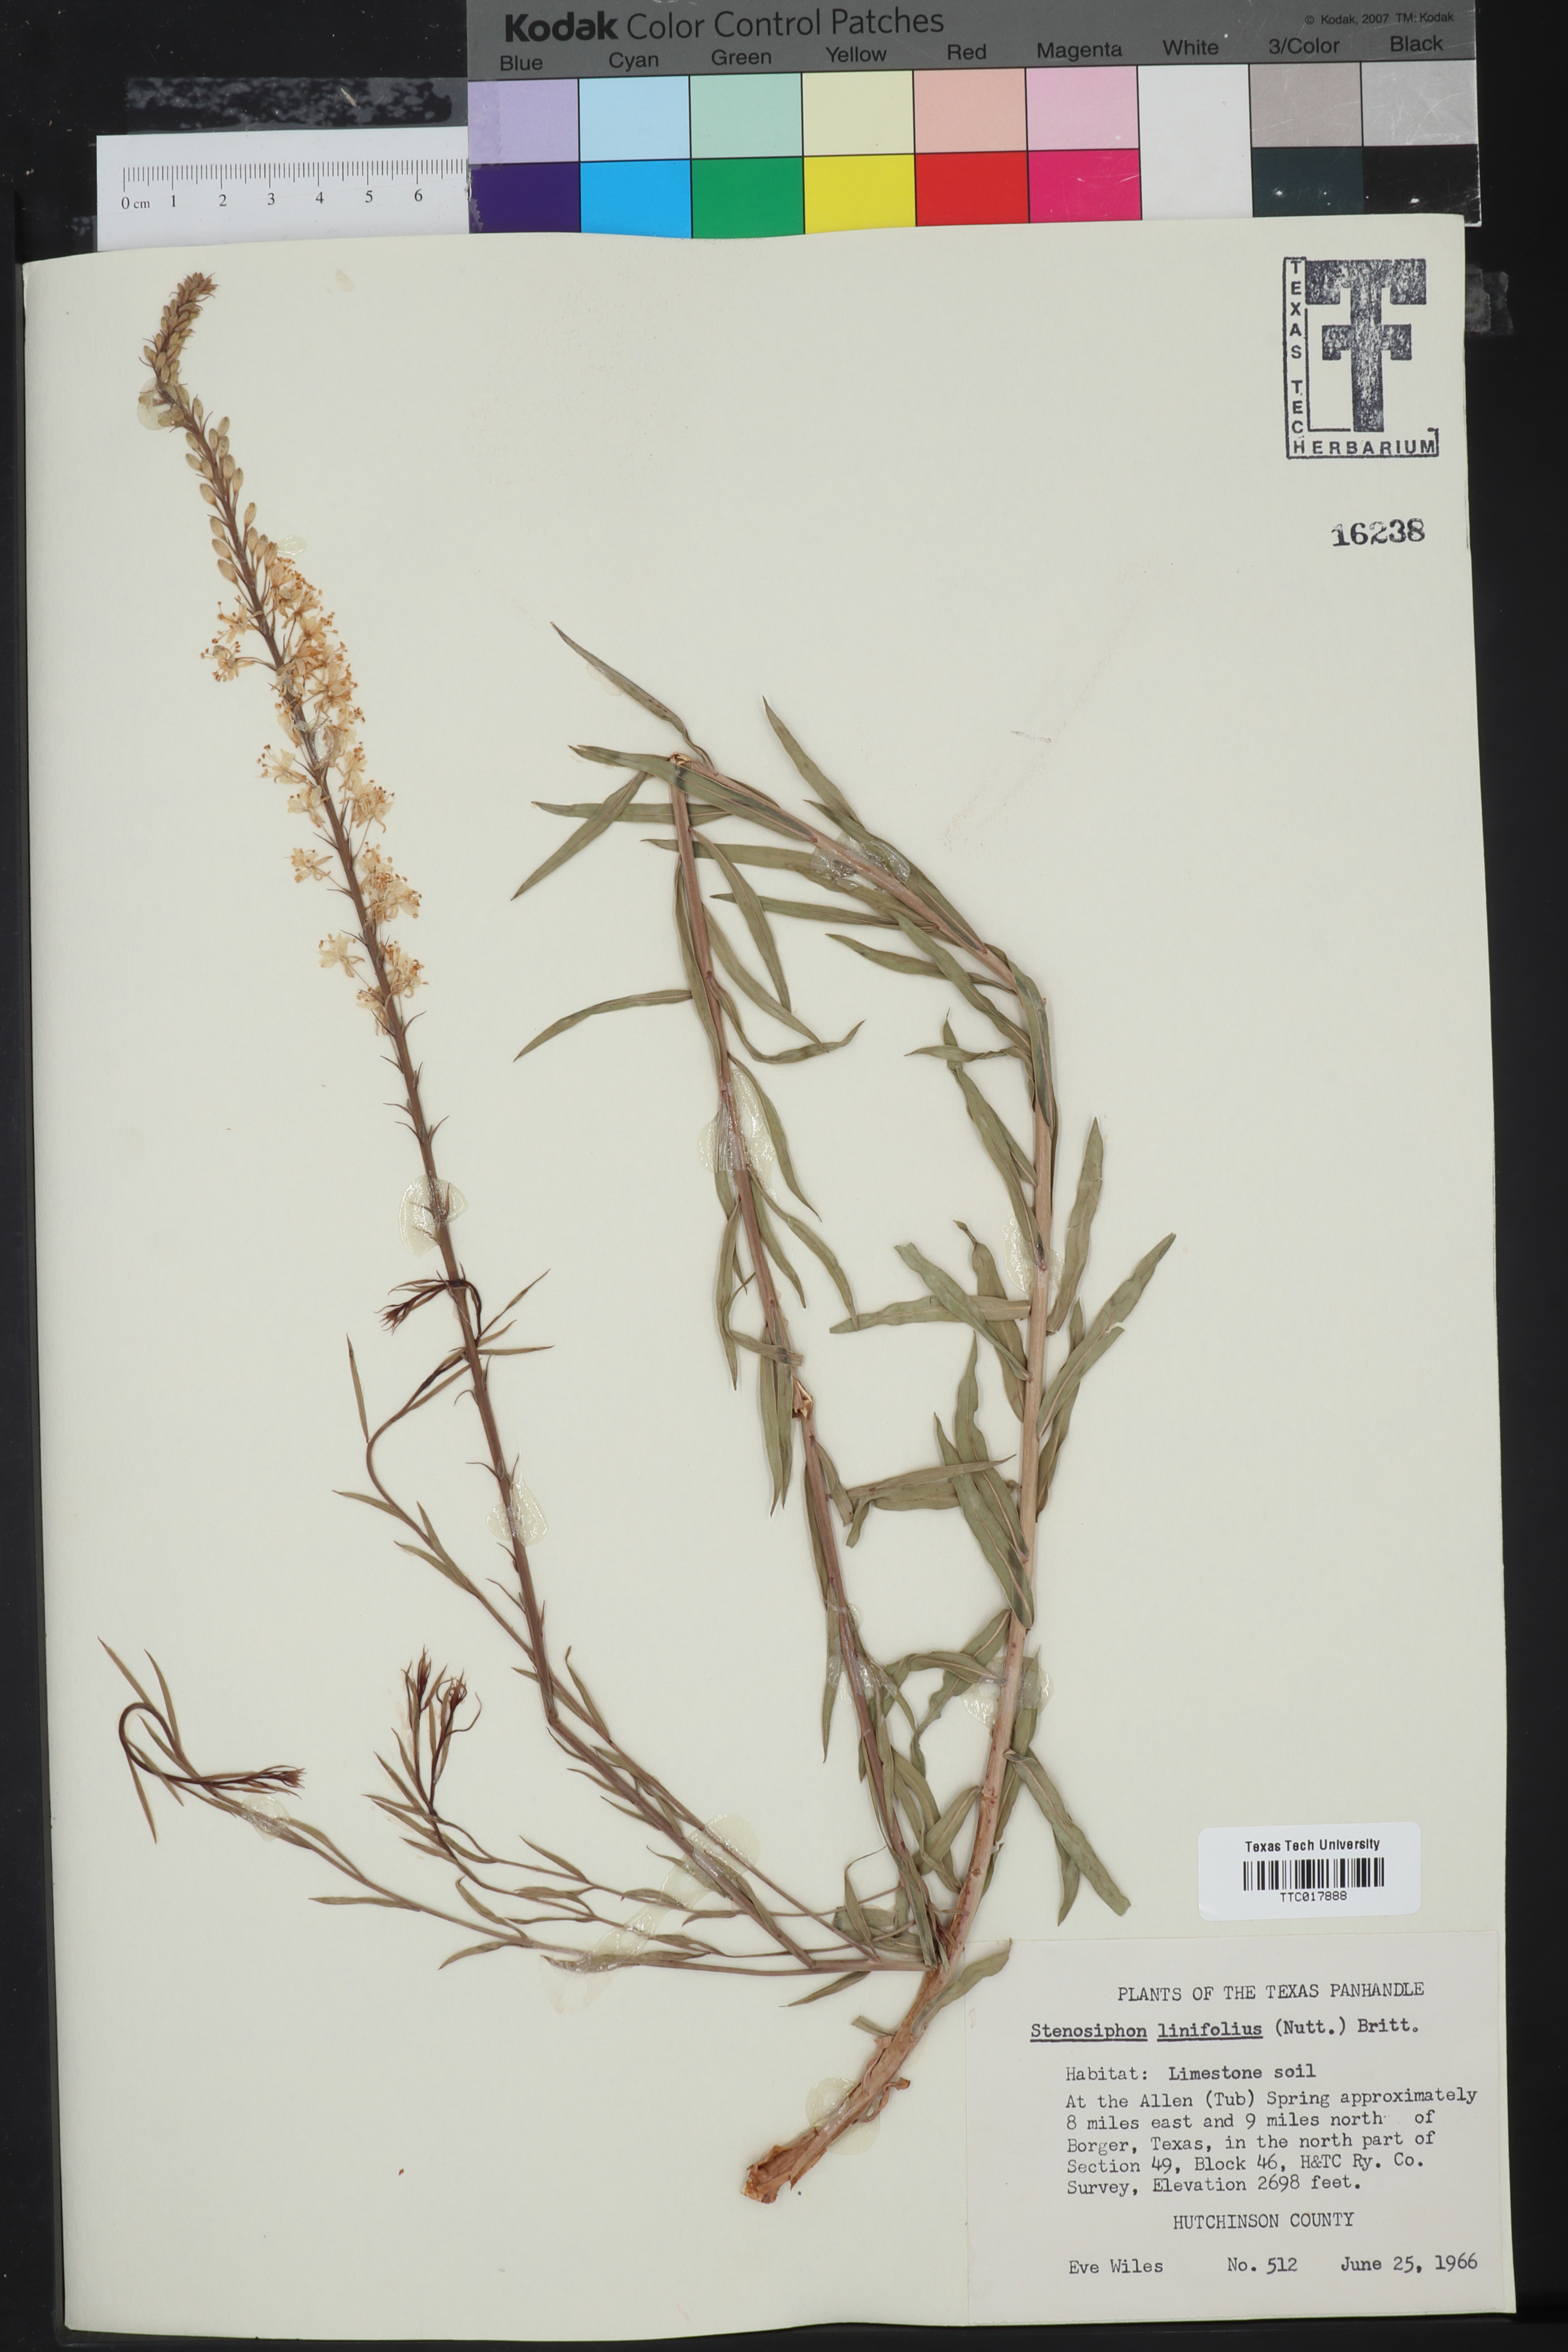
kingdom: Plantae
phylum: Tracheophyta
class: Magnoliopsida
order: Myrtales
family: Onagraceae
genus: Oenothera
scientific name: Oenothera glaucifolia
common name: False gaura
